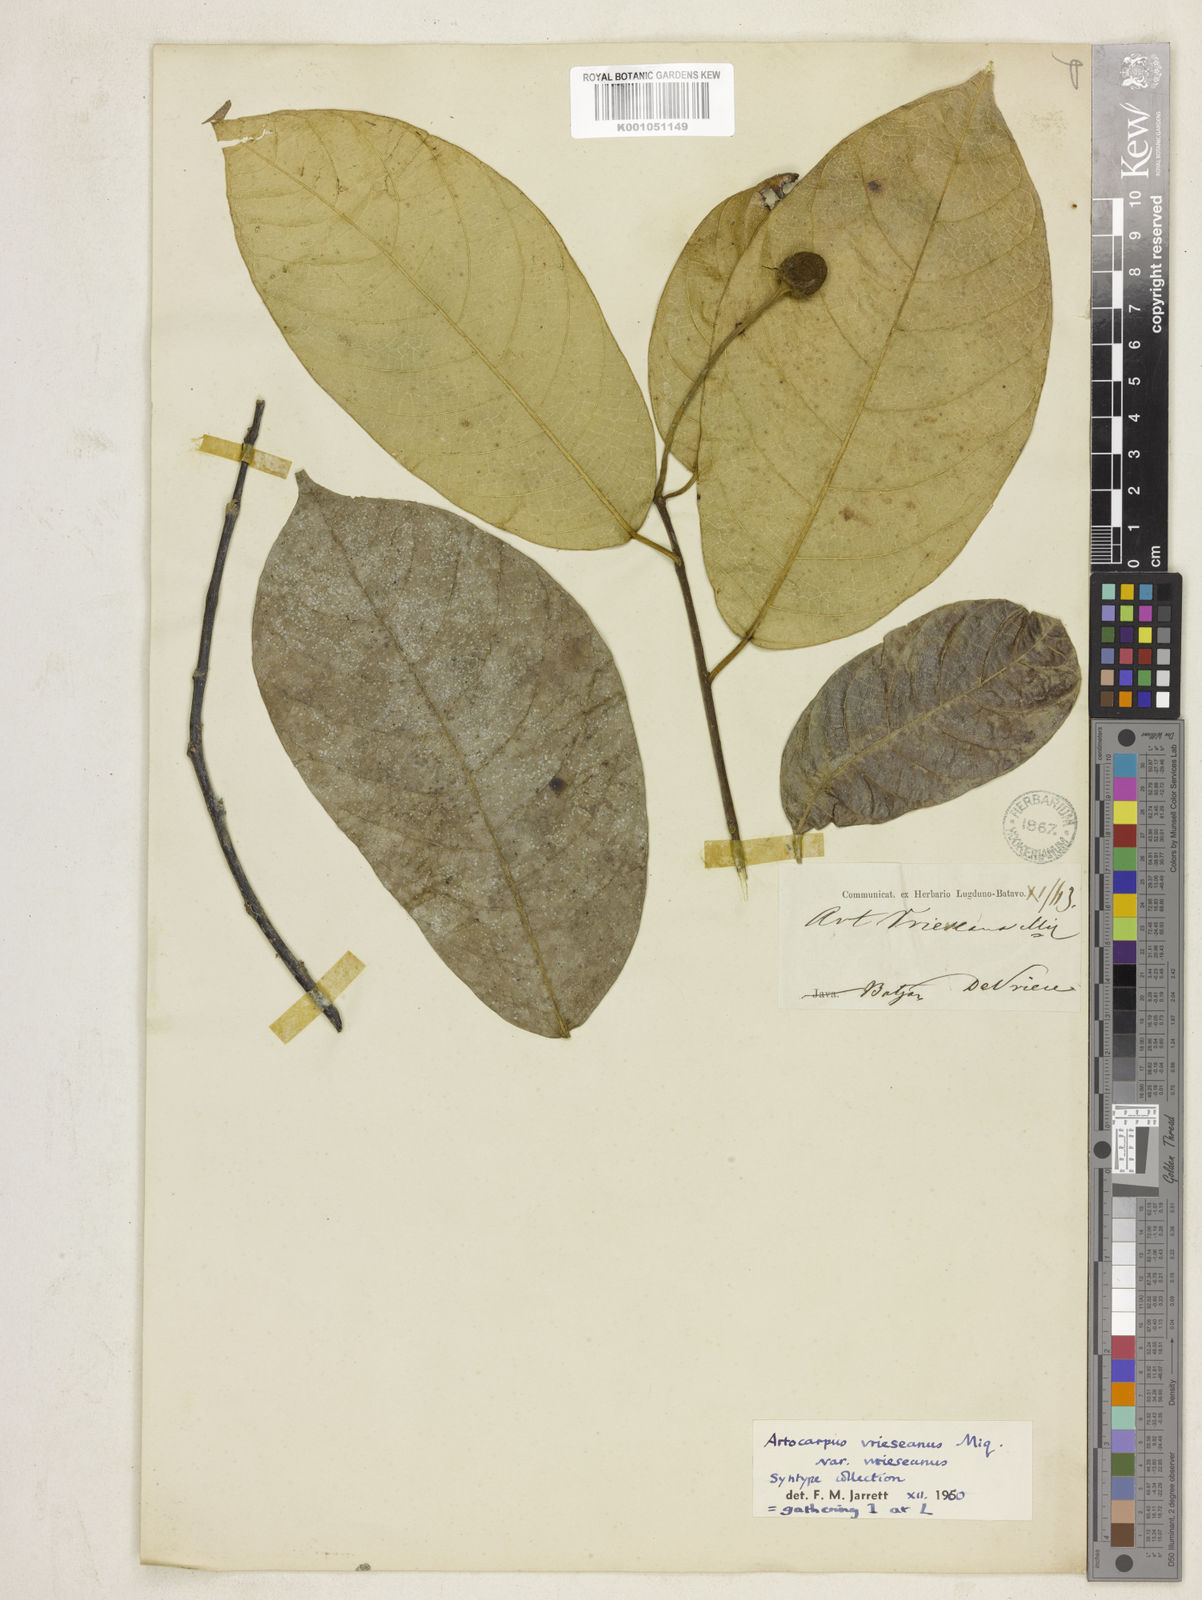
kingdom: Plantae
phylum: Tracheophyta
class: Magnoliopsida
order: Rosales
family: Moraceae
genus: Artocarpus
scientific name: Artocarpus
